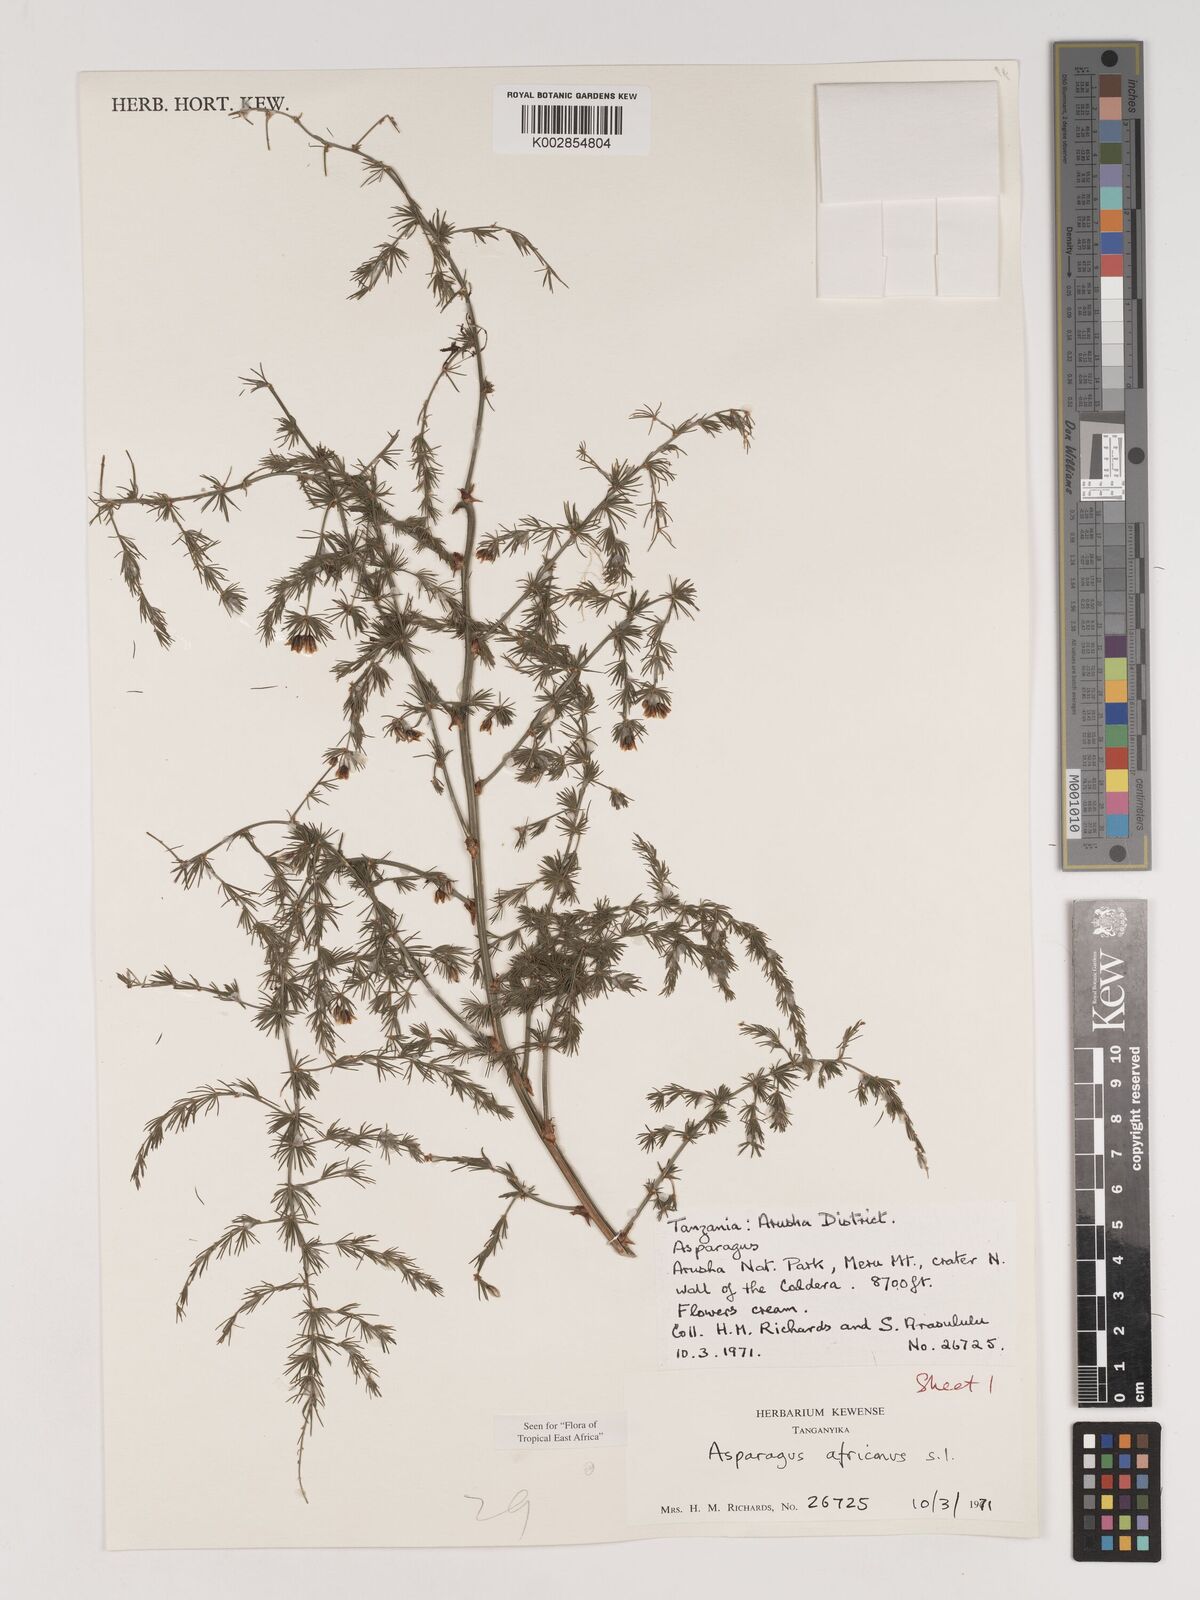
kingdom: Plantae
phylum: Tracheophyta
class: Liliopsida
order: Asparagales
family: Asparagaceae
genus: Asparagus
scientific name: Asparagus africanus
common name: Asparagus-fern
